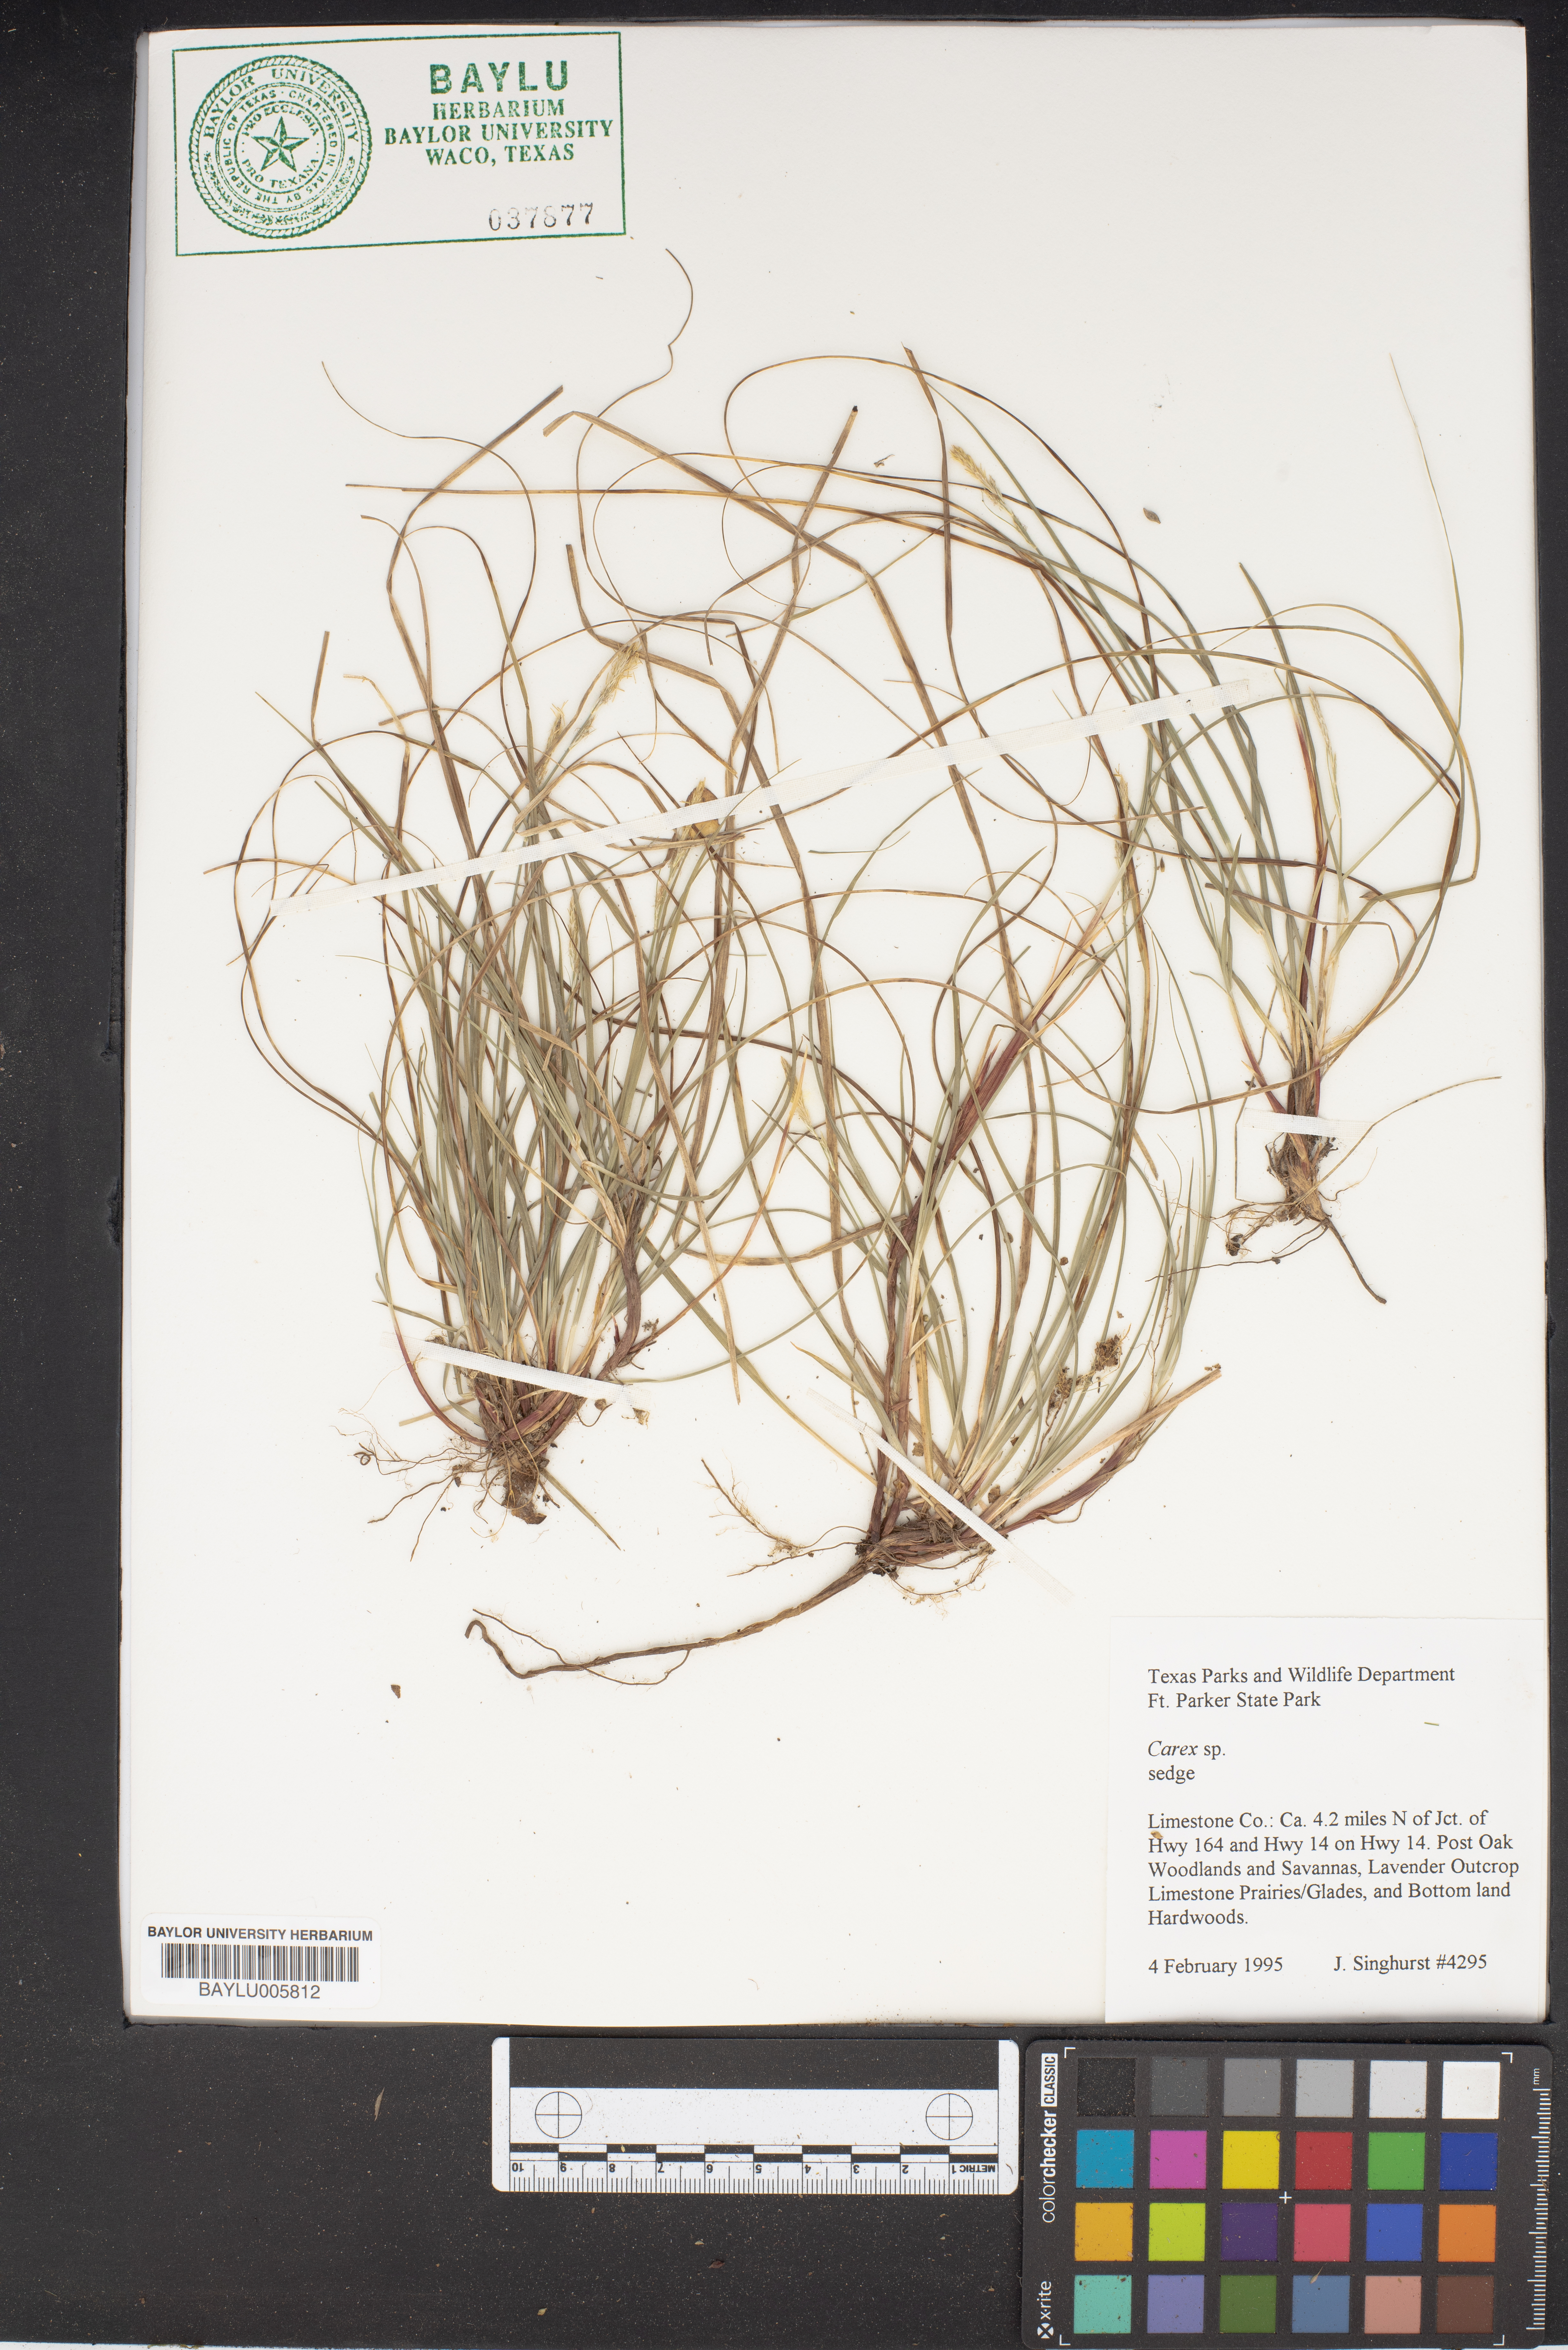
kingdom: Plantae
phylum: Tracheophyta
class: Liliopsida
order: Poales
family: Cyperaceae
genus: Carex
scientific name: Carex
